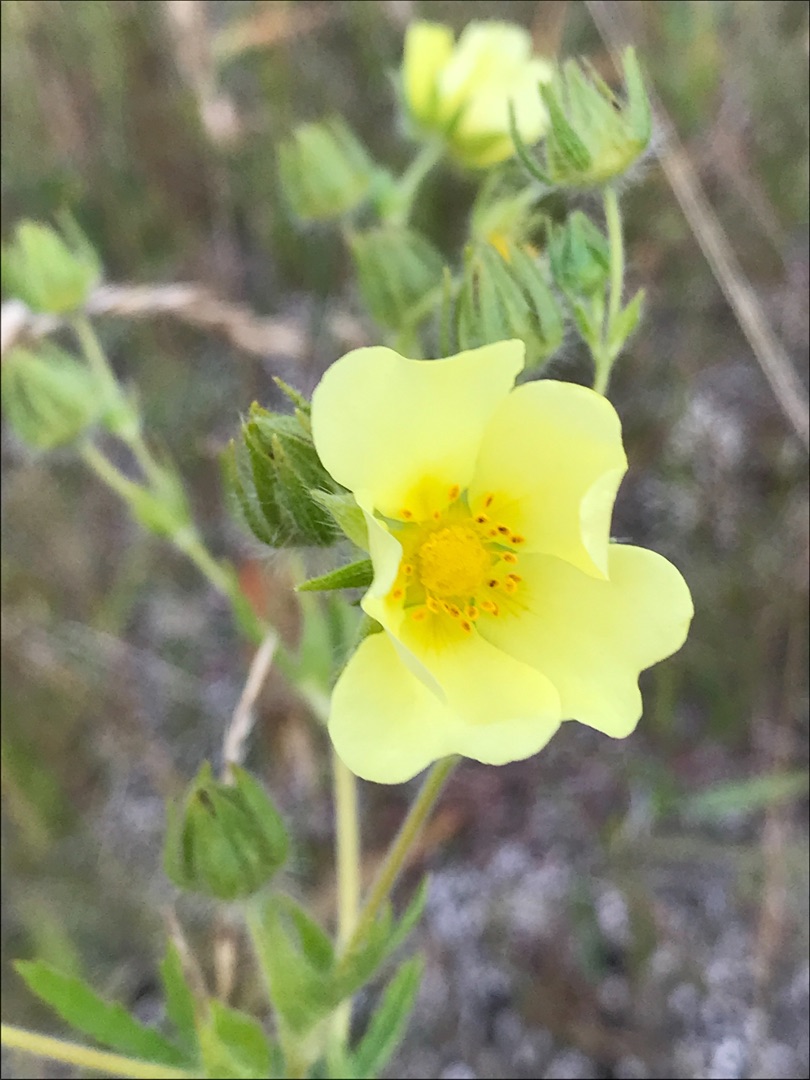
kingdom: Plantae
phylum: Tracheophyta
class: Magnoliopsida
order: Rosales
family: Rosaceae
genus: Potentilla
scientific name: Potentilla recta
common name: Rank potentil
